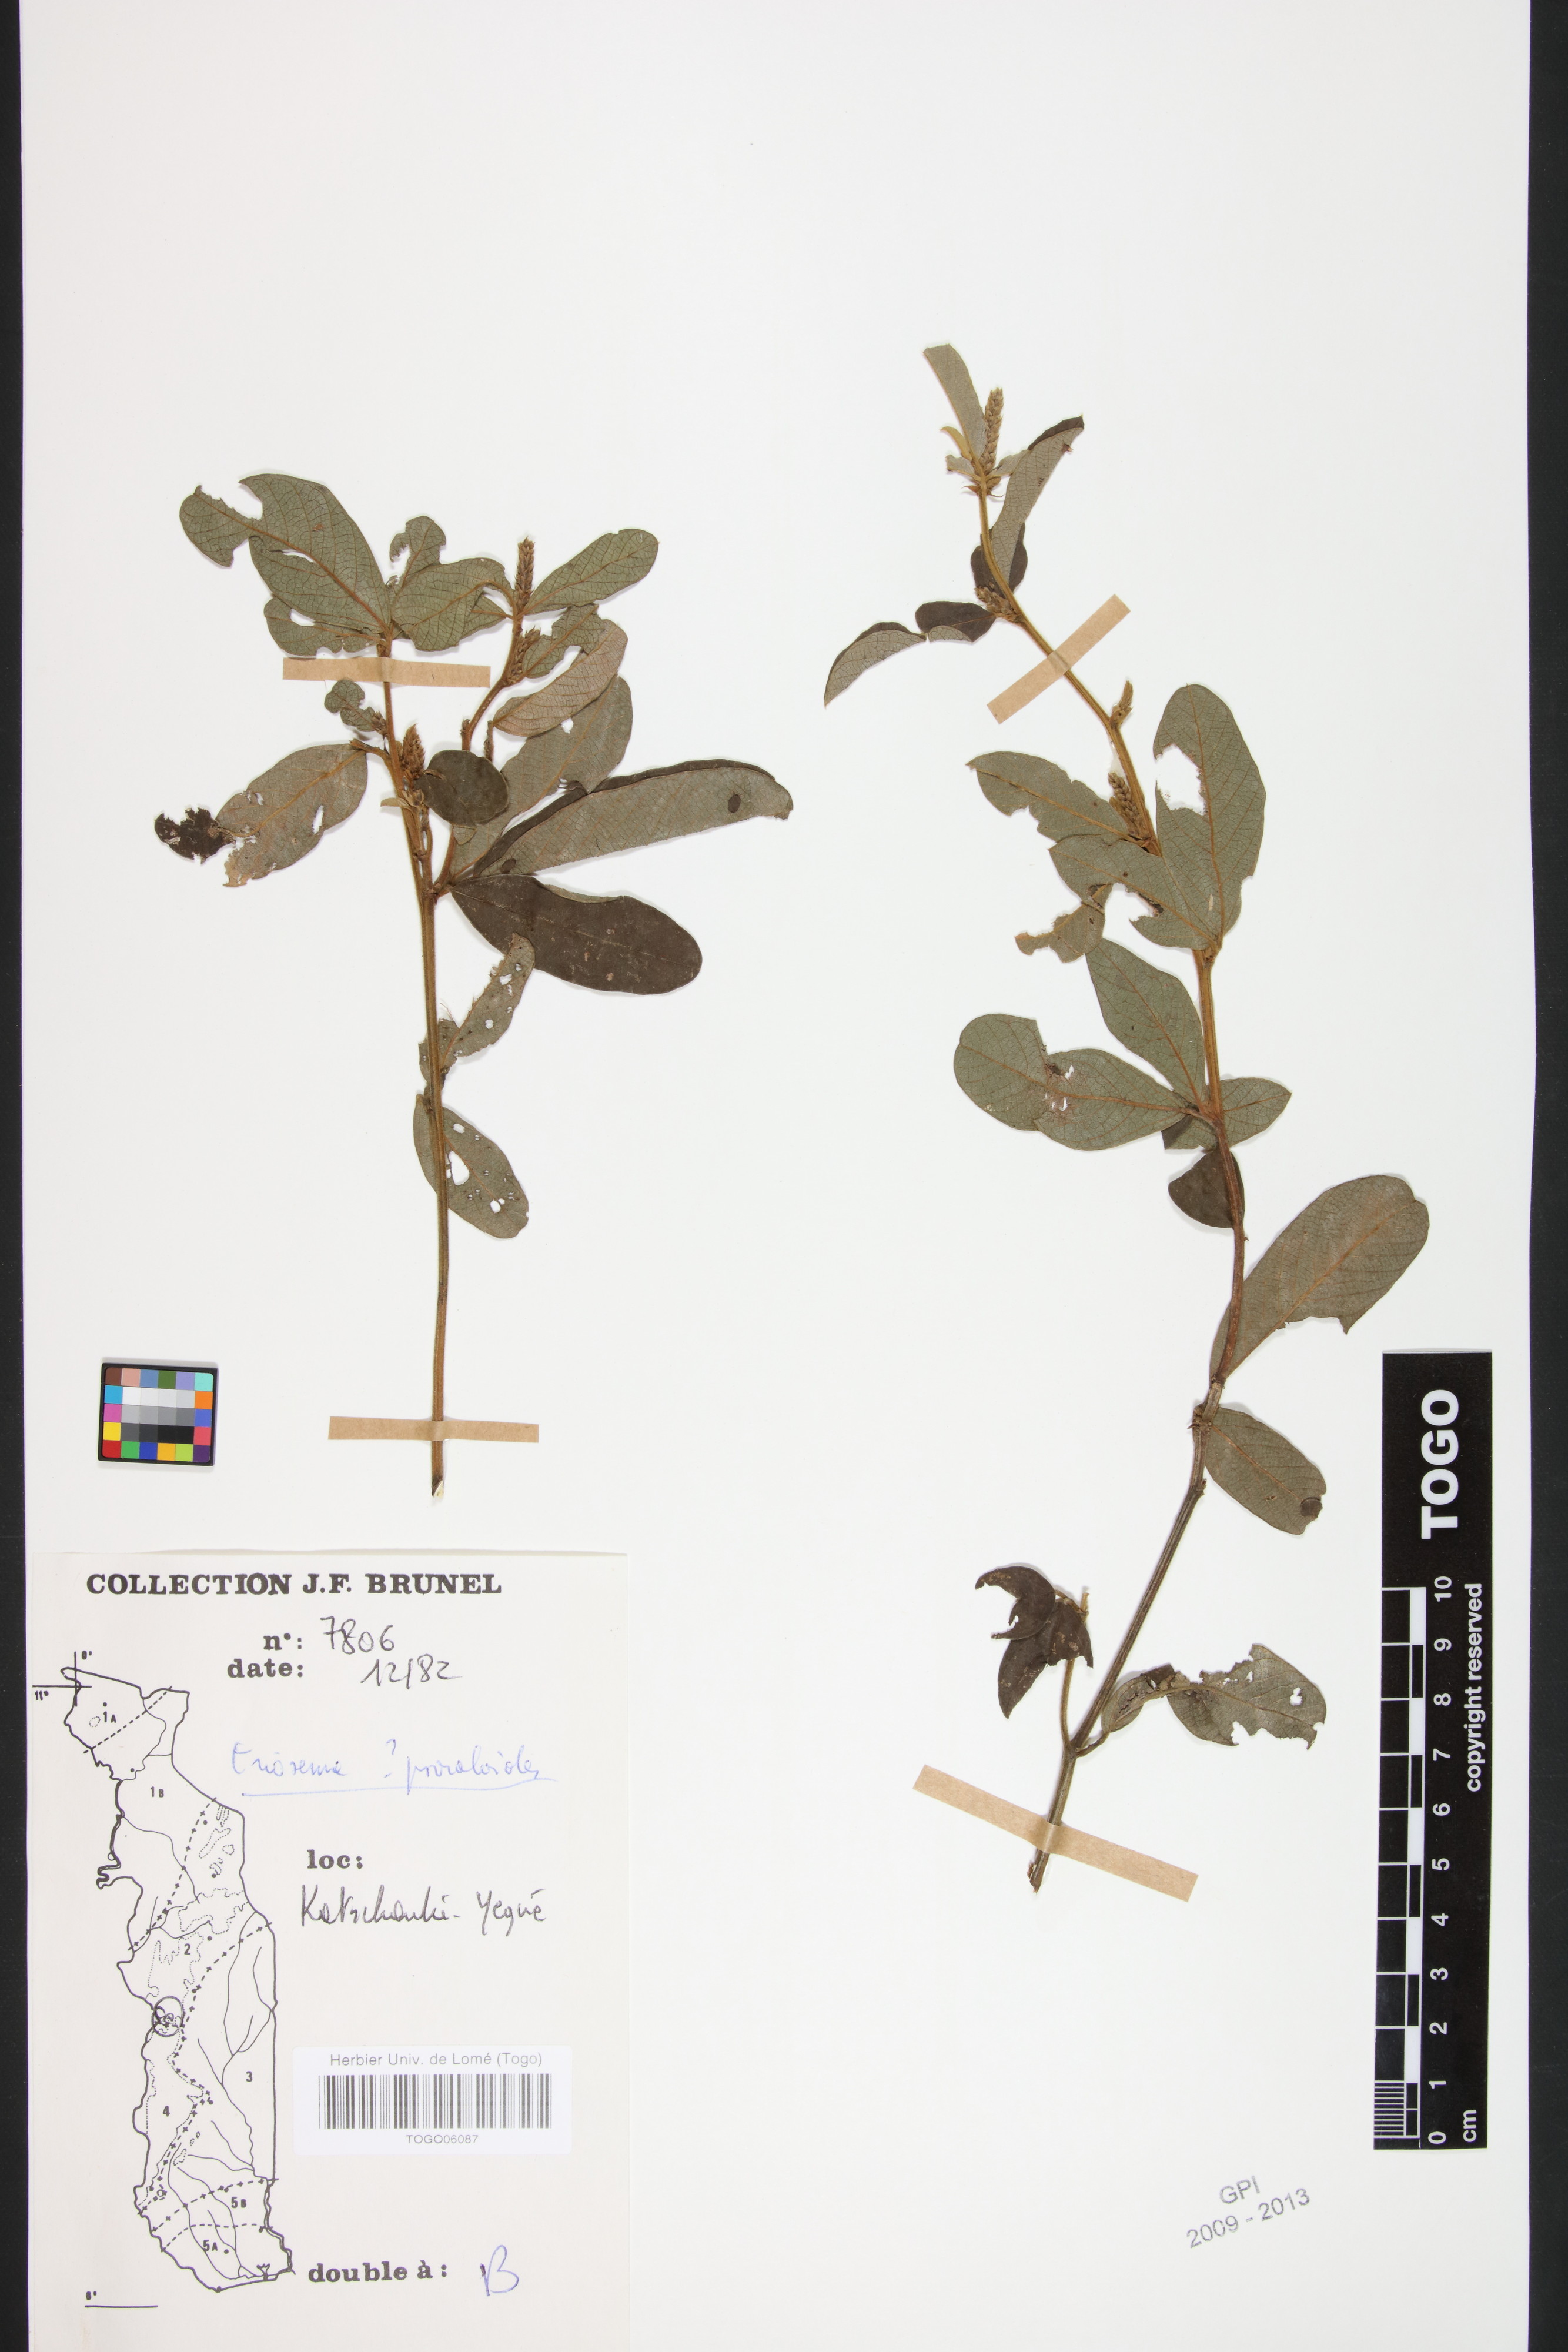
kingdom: Plantae
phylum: Tracheophyta
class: Magnoliopsida
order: Fabales
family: Fabaceae
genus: Eriosema
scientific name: Eriosema psoraleoides
